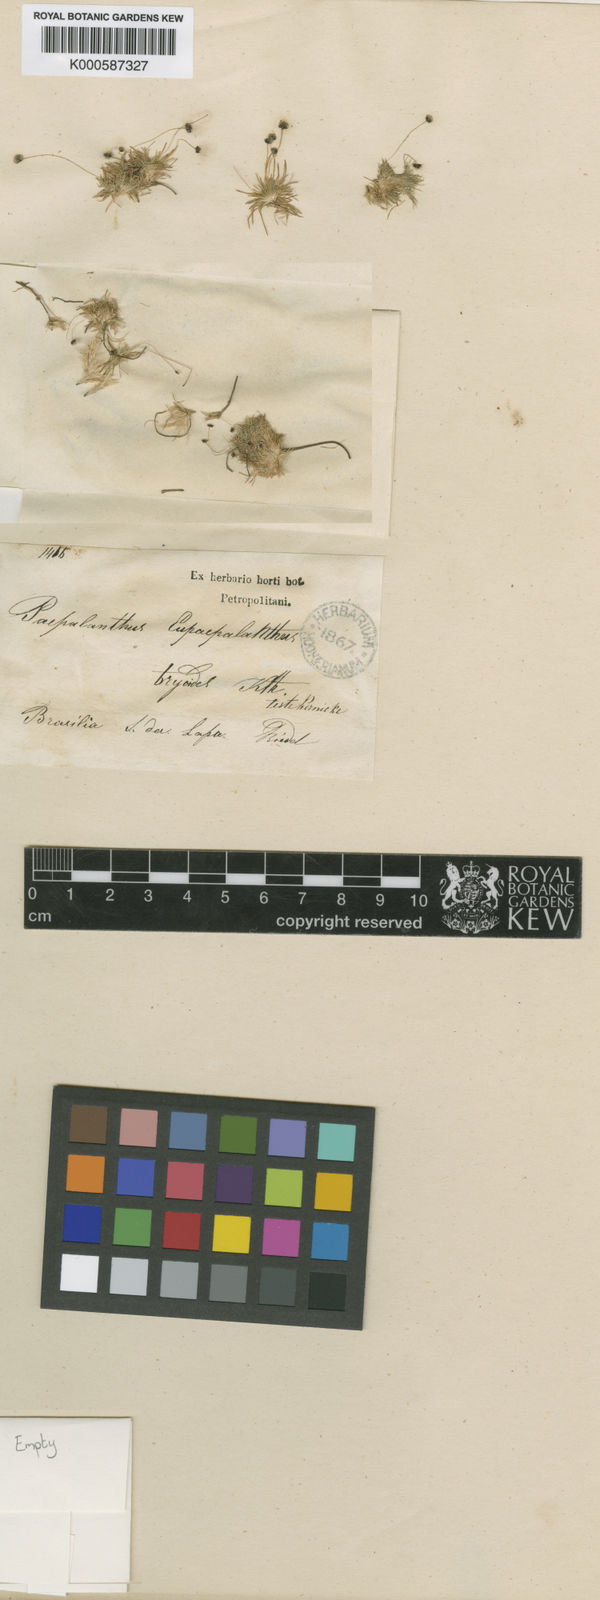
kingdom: Plantae
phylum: Tracheophyta
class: Liliopsida
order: Poales
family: Eriocaulaceae
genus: Paepalanthus
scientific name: Paepalanthus bryoides
